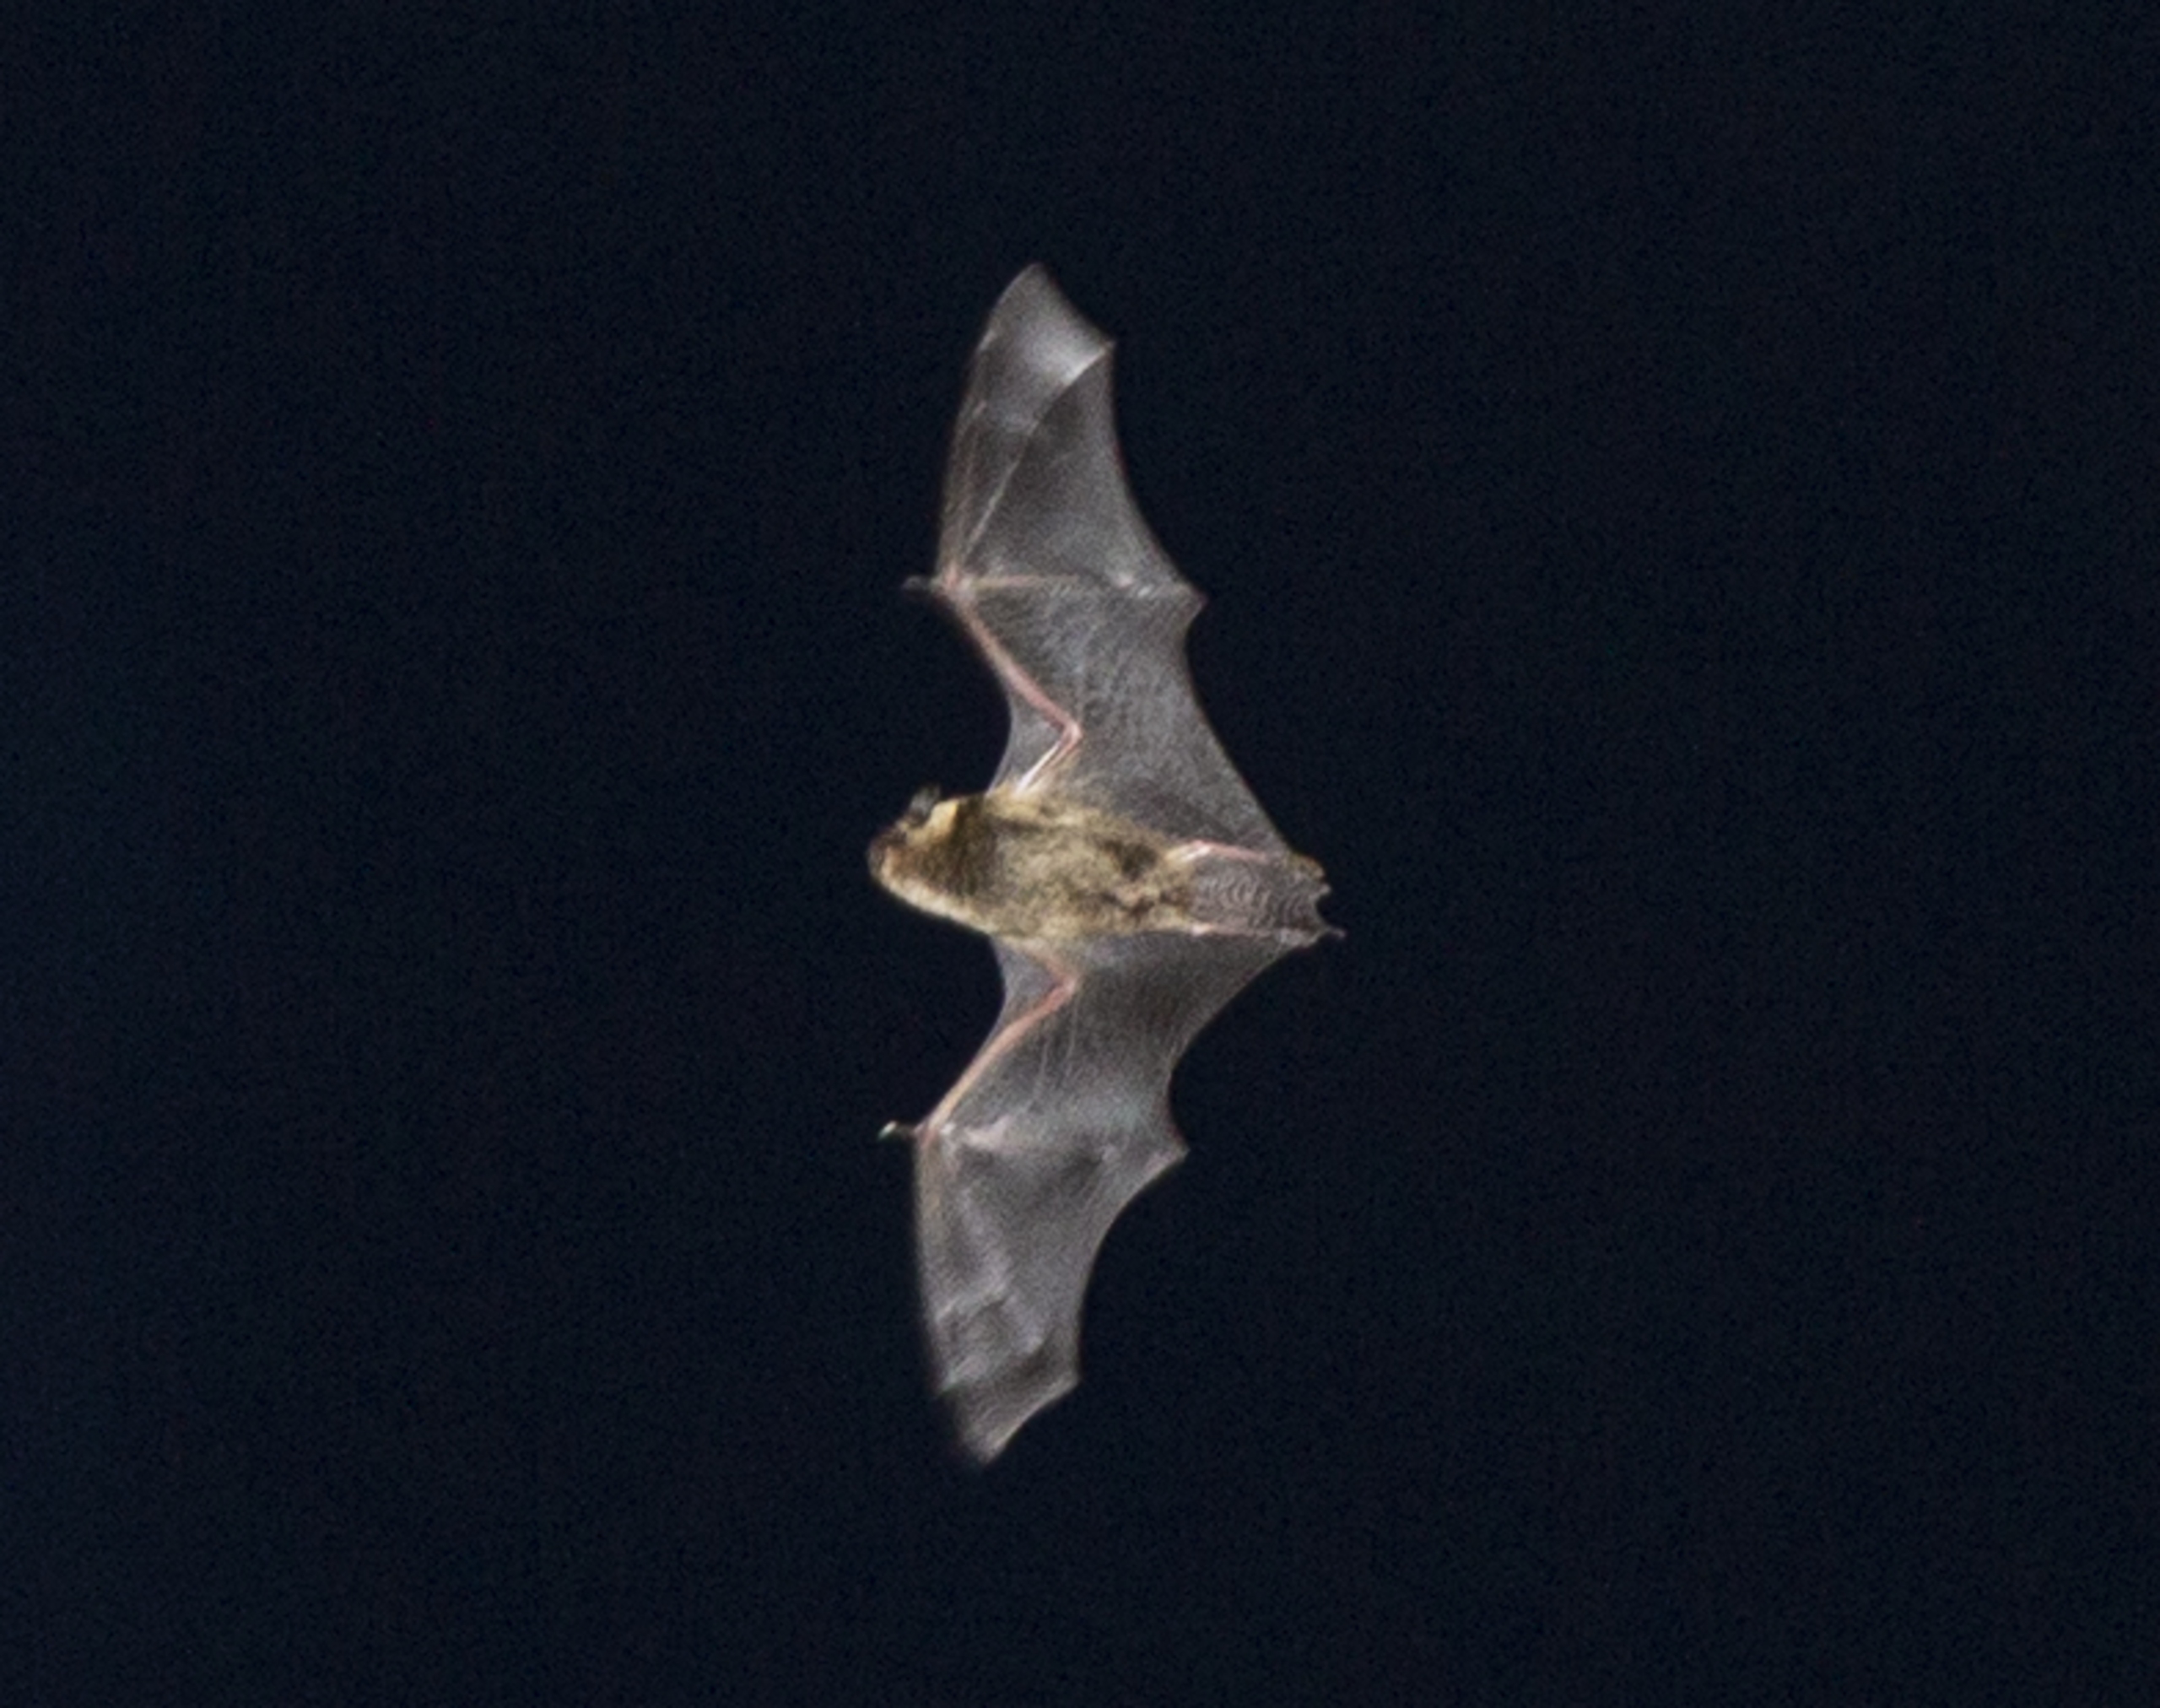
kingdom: Animalia
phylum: Chordata
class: Mammalia
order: Chiroptera
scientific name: Chiroptera
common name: Flagermus
